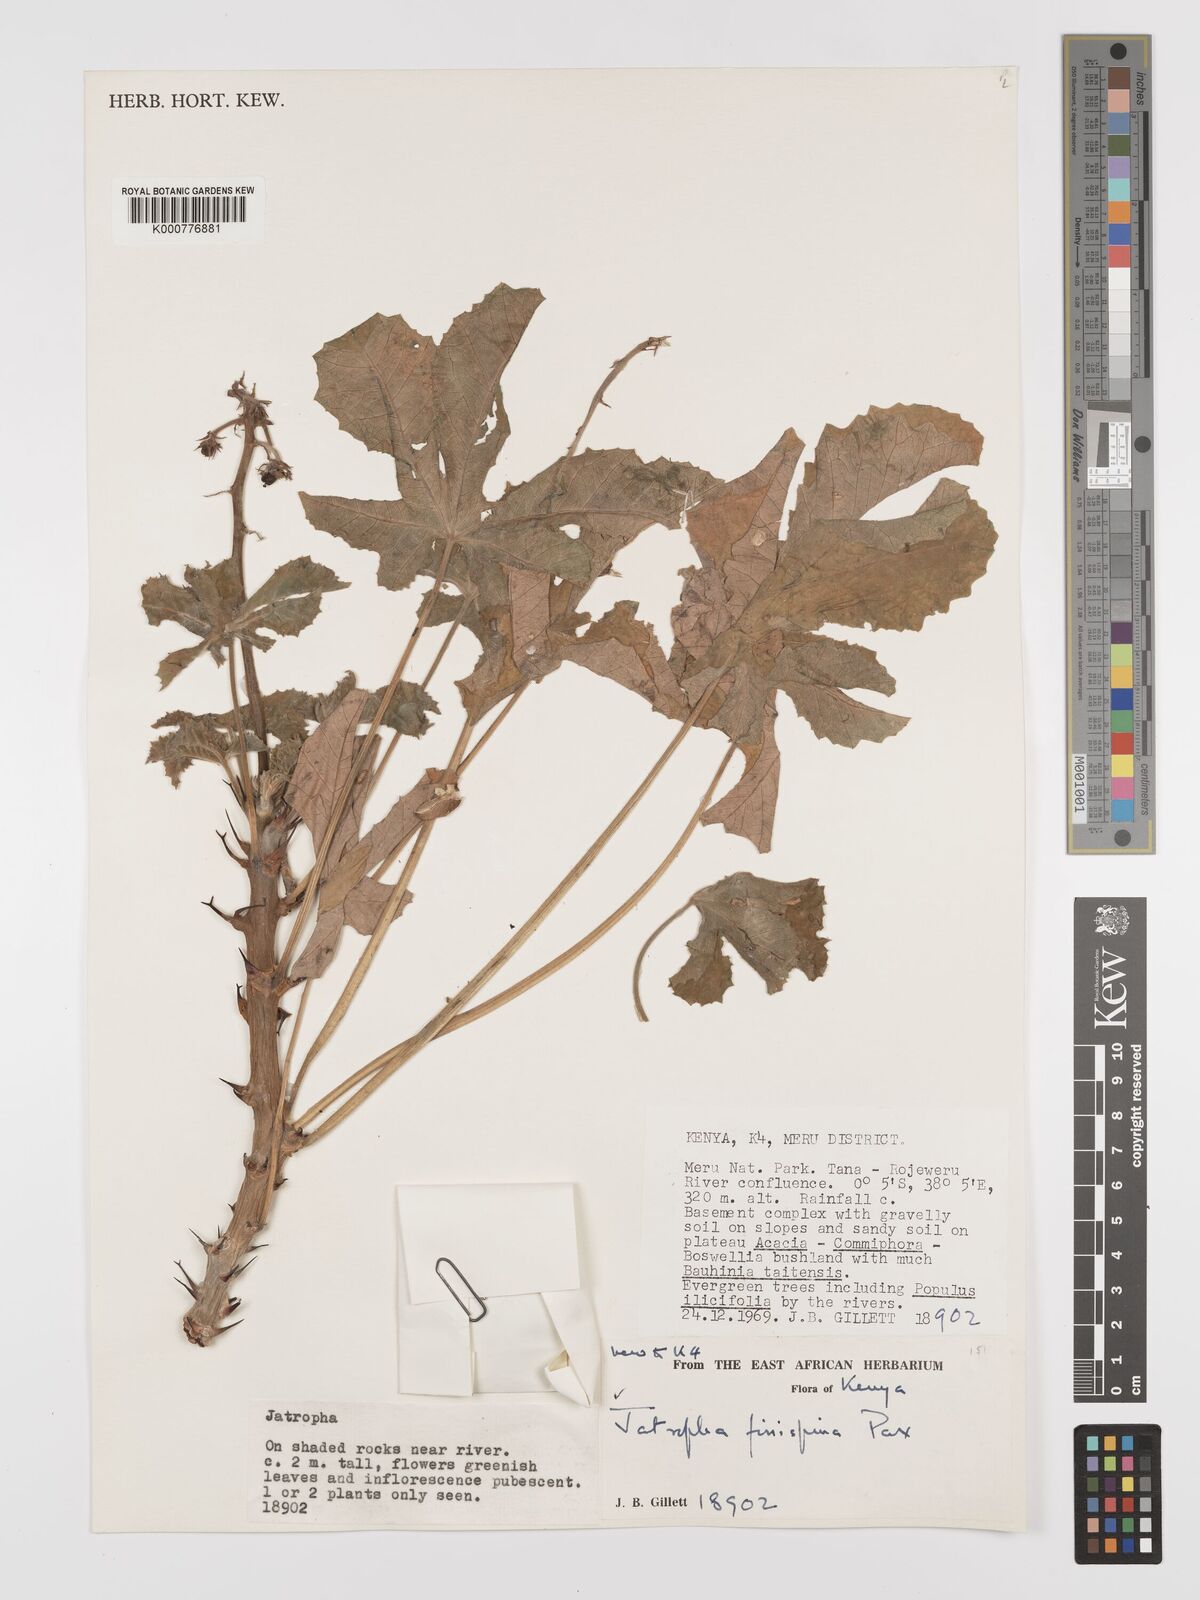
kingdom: Plantae
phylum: Tracheophyta
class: Magnoliopsida
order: Malpighiales
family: Euphorbiaceae
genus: Jatropha
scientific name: Jatropha ellenbeckii
